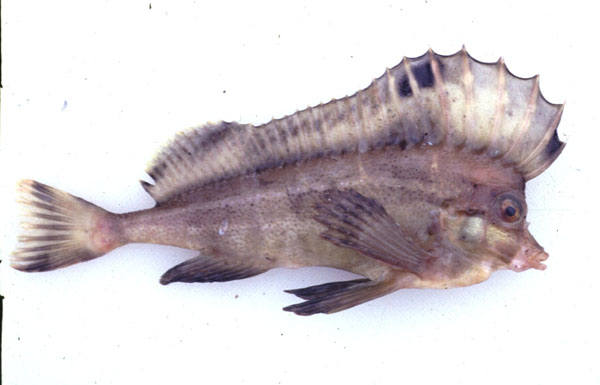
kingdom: Animalia
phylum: Chordata
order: Scorpaeniformes
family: Congiopodidae
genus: Congiopodus
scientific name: Congiopodus spinifer
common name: Spinenose horsefish
